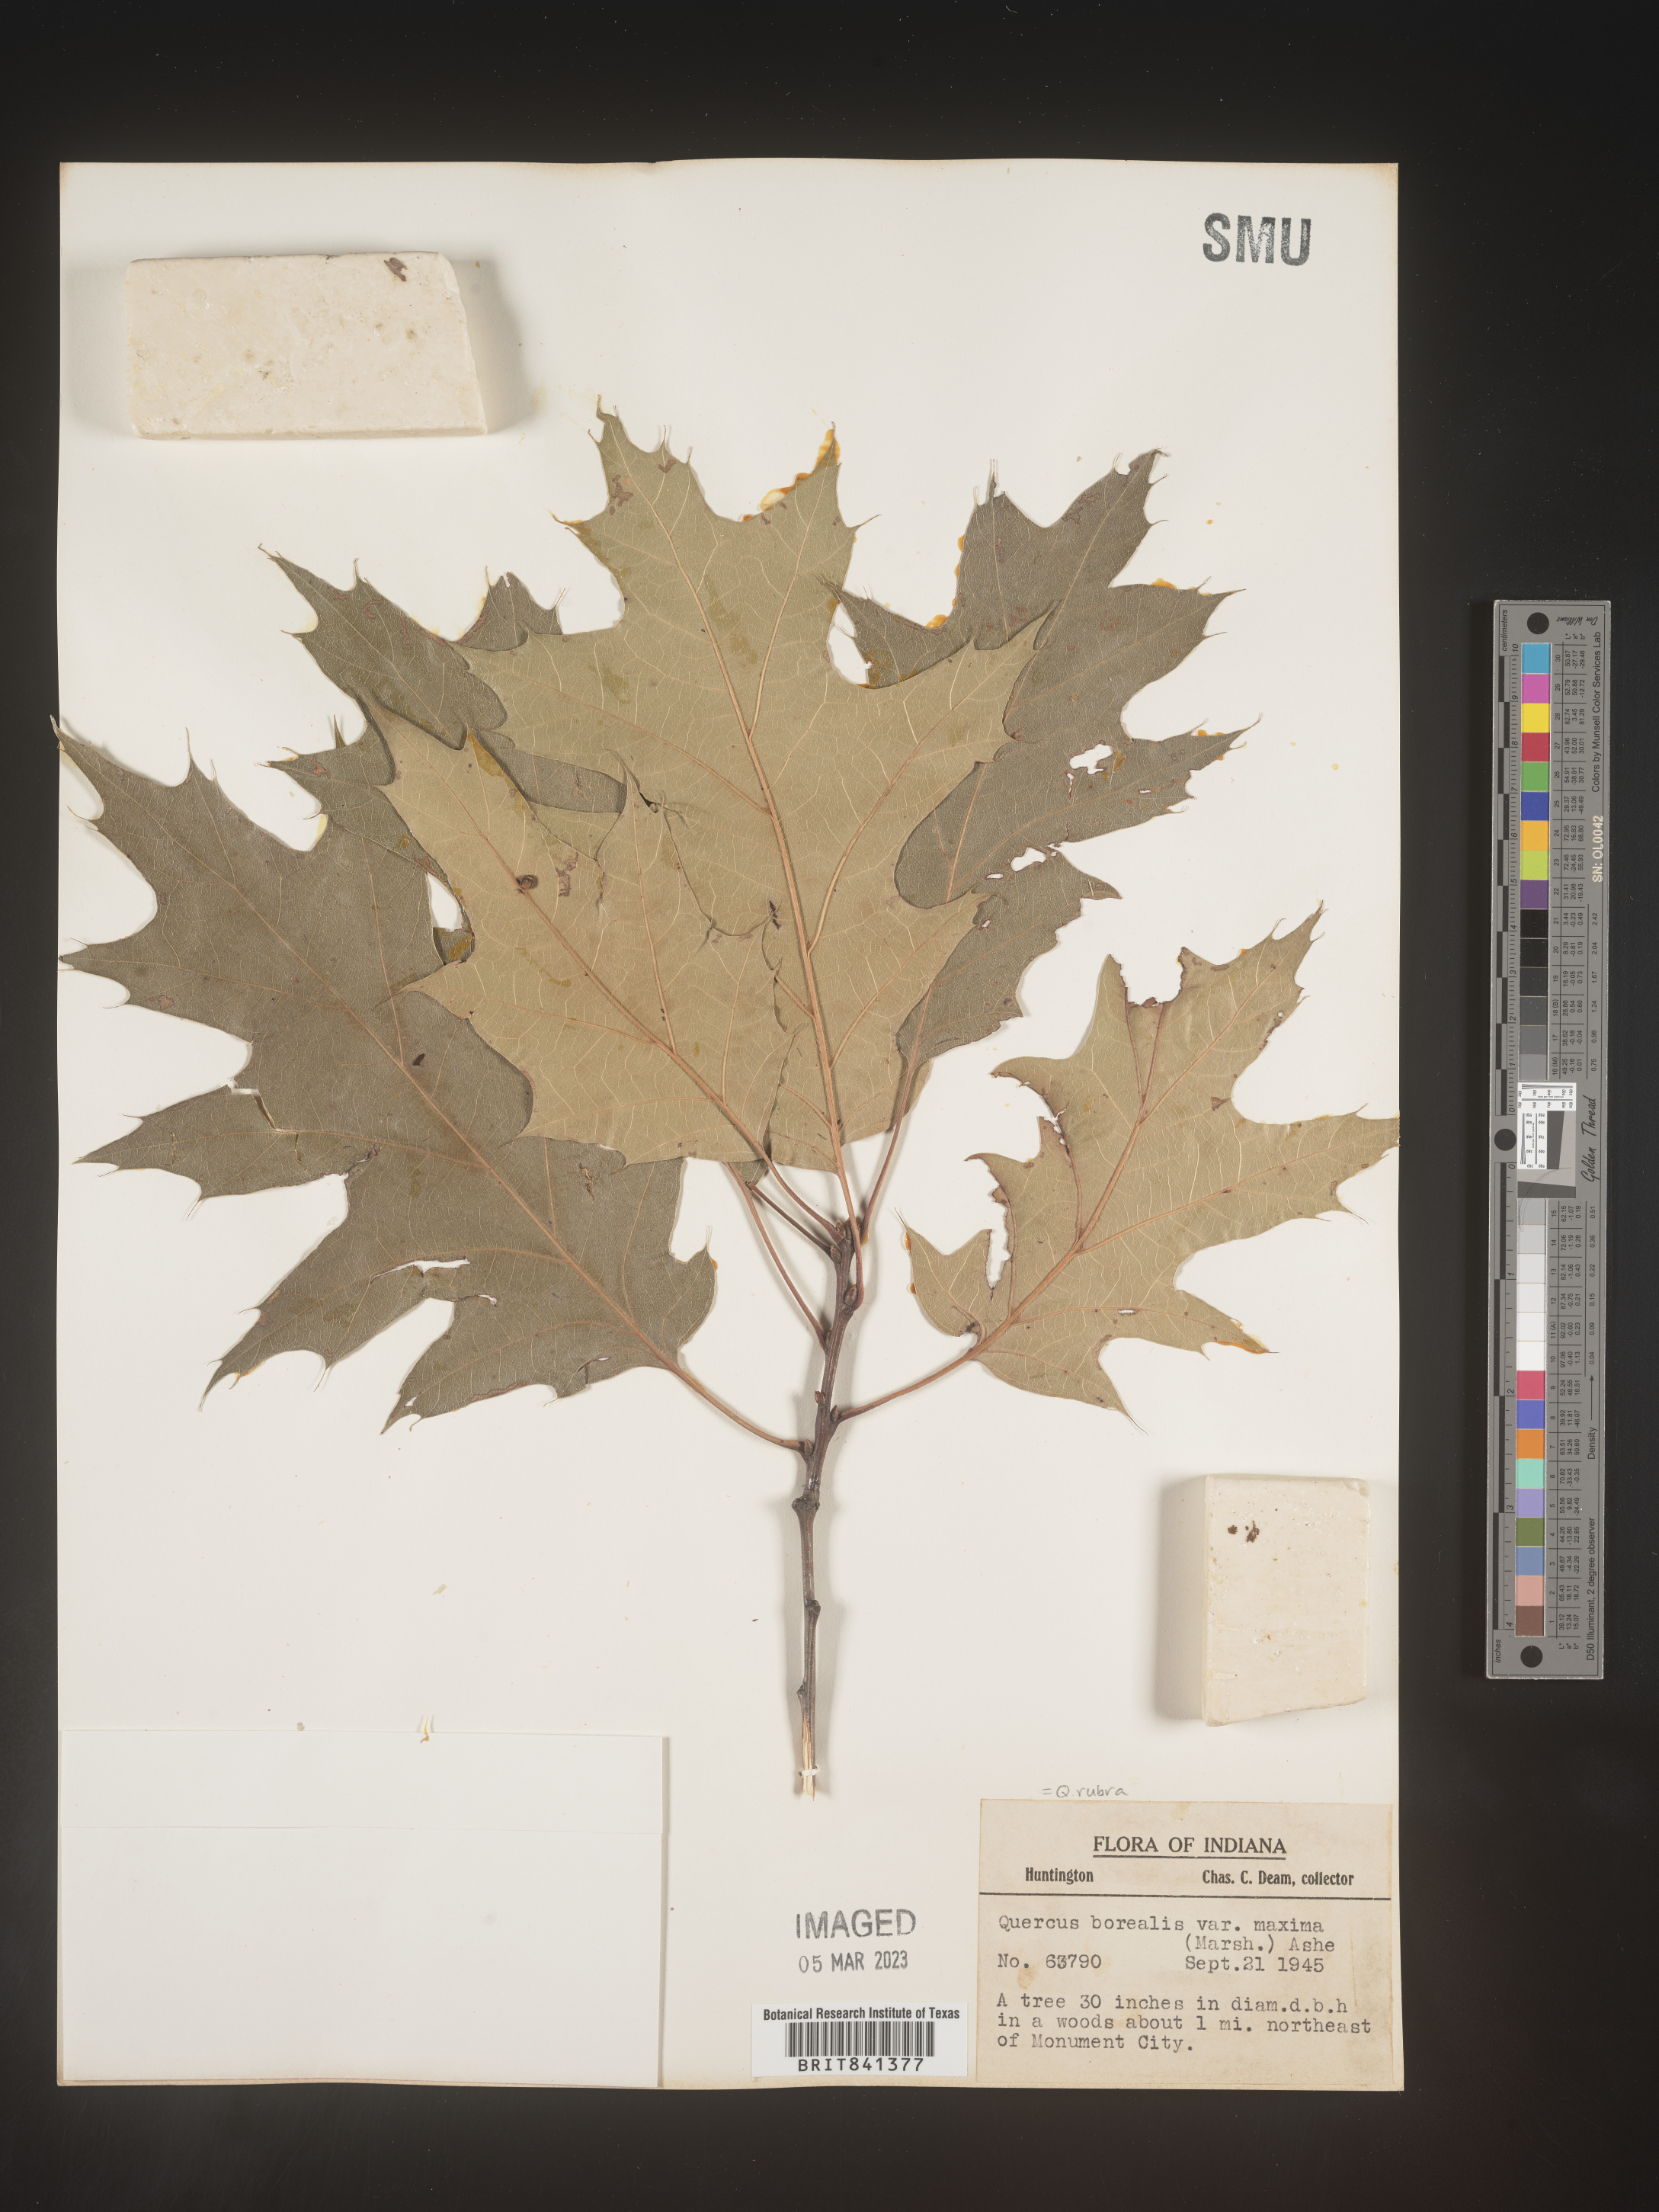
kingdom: Plantae
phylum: Tracheophyta
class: Magnoliopsida
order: Fagales
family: Fagaceae
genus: Quercus
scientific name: Quercus rubra
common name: Red oak
